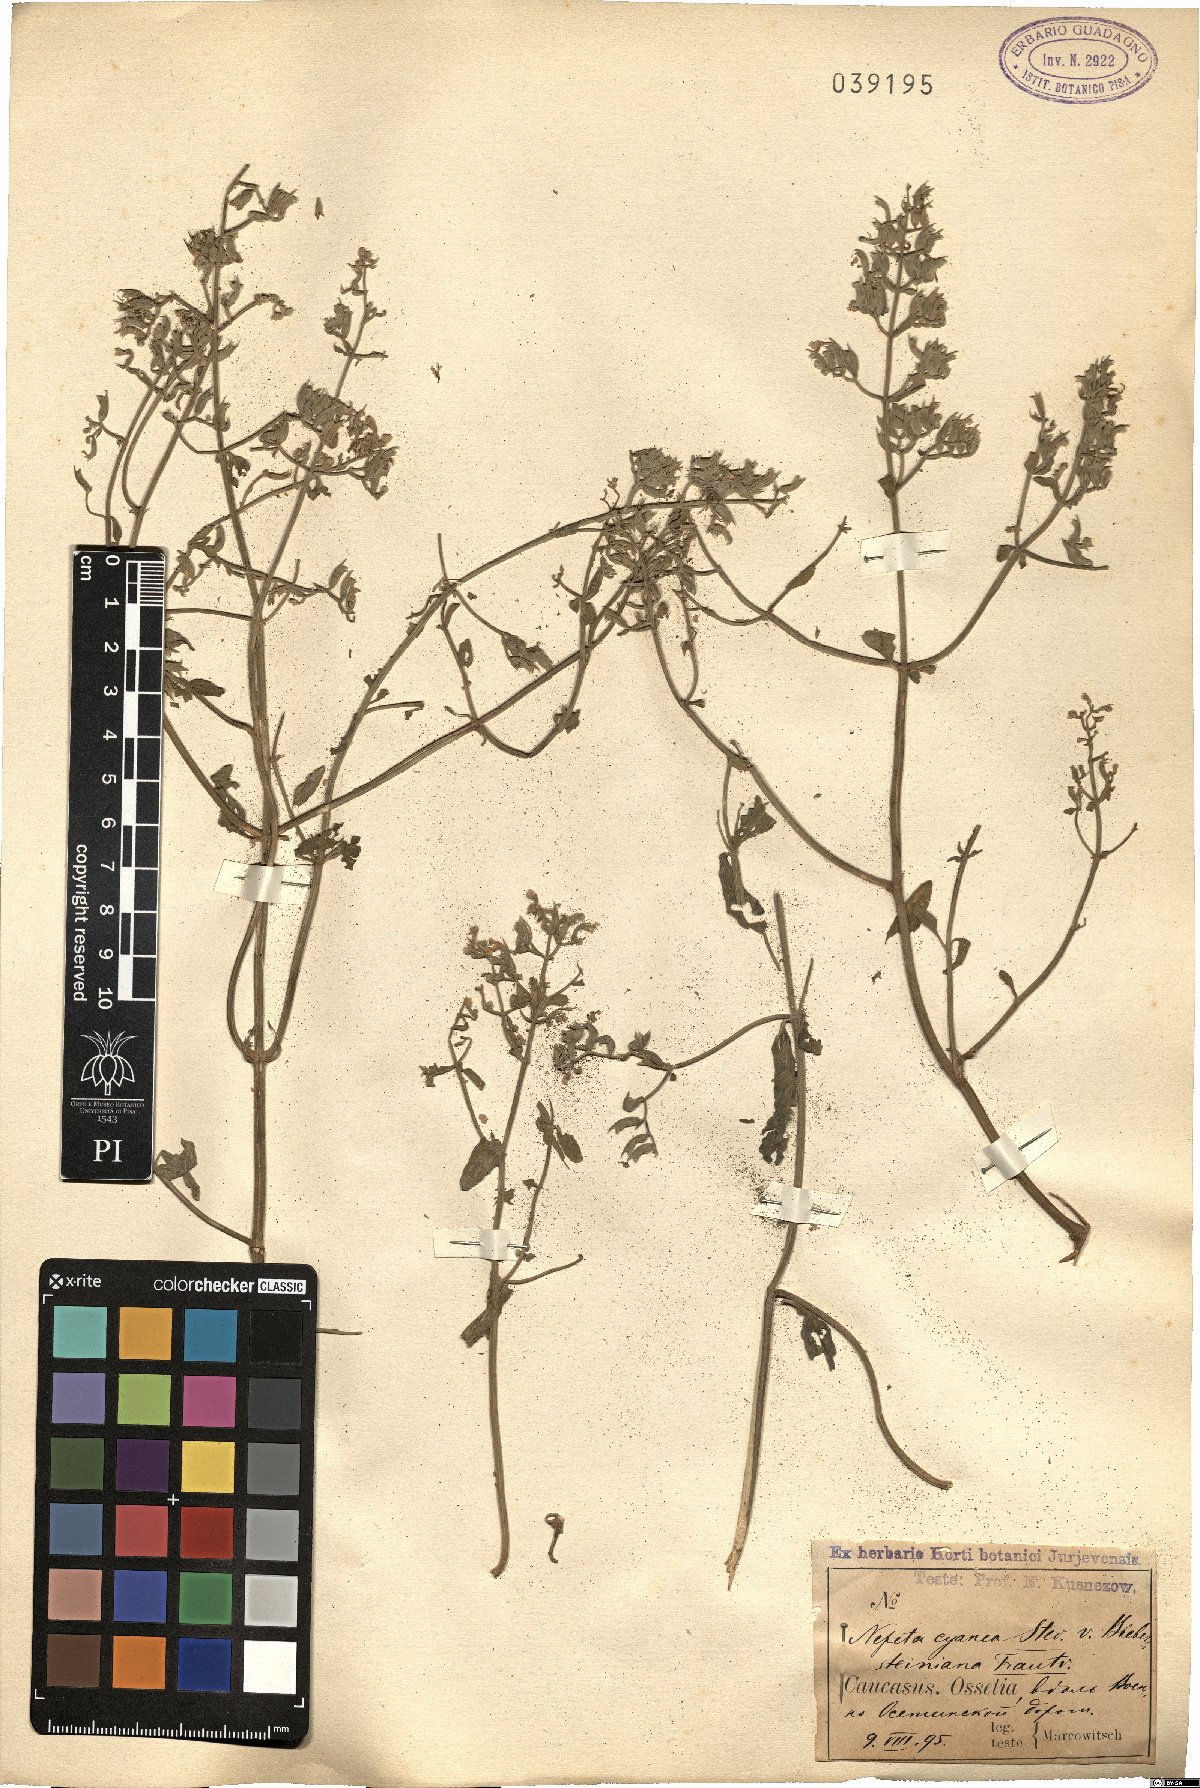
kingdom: Plantae
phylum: Tracheophyta
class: Magnoliopsida
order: Lamiales
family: Lamiaceae
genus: Nepeta
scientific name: Nepeta cyanea
